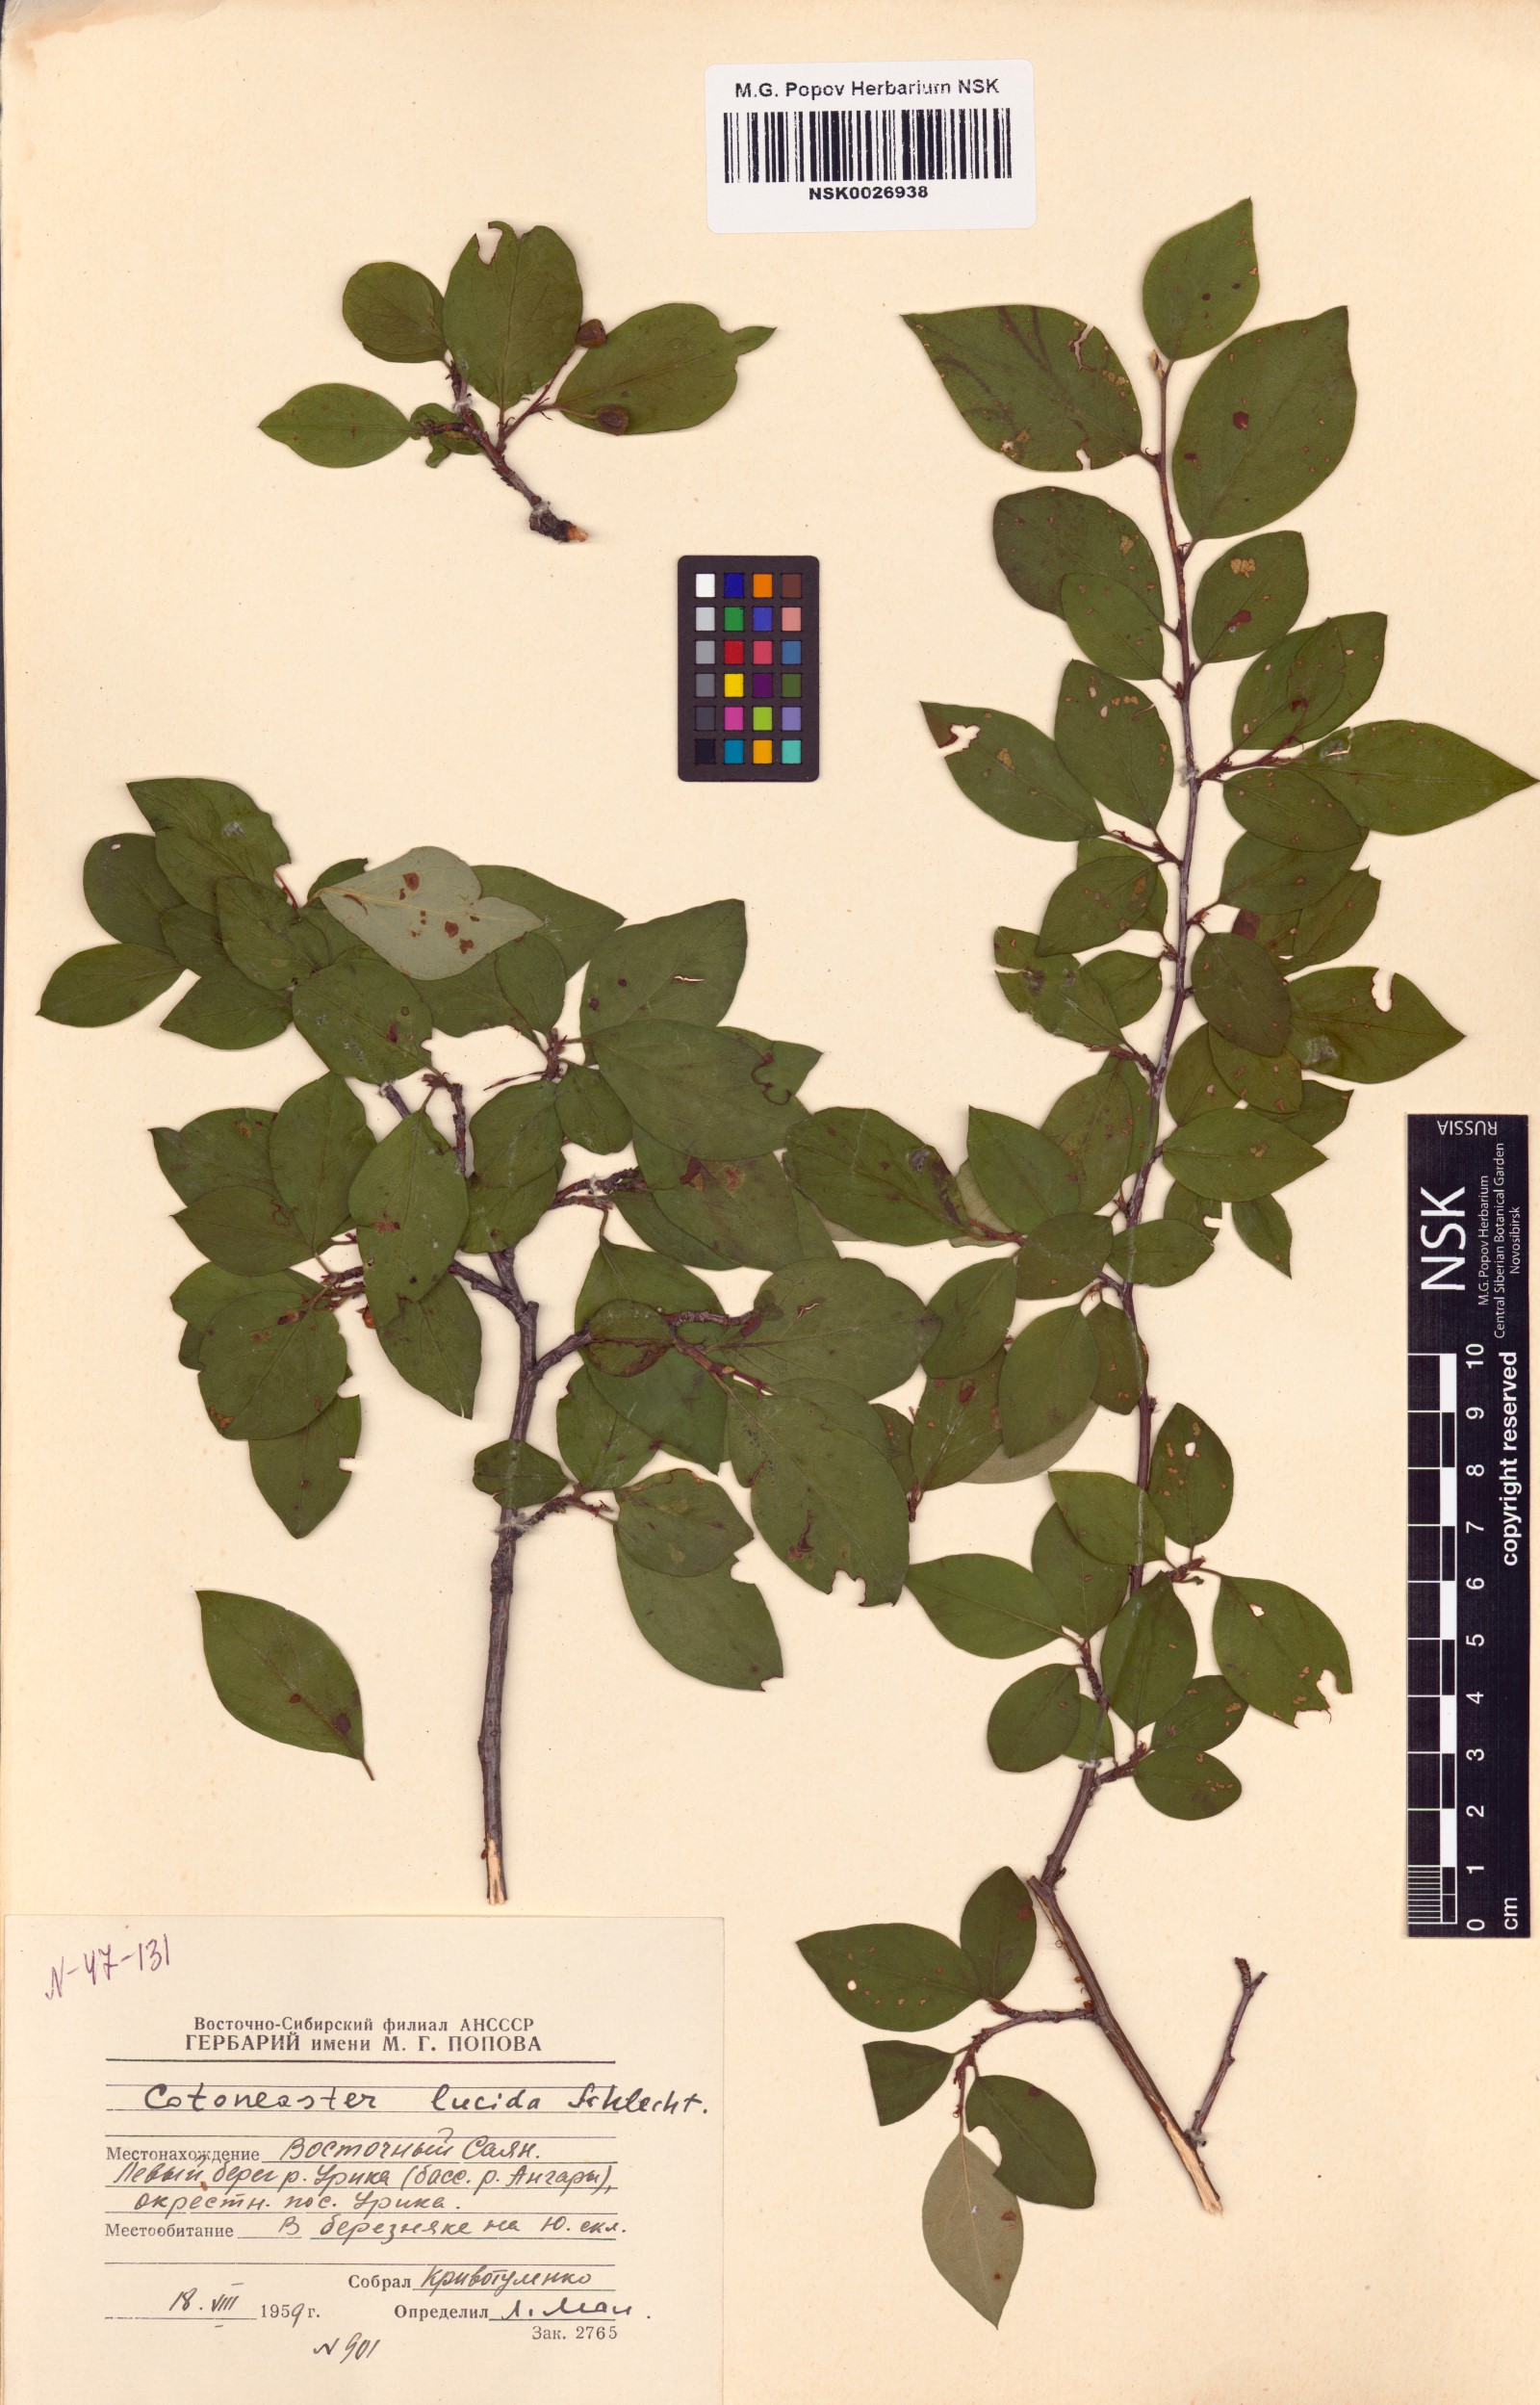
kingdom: Plantae
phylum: Tracheophyta
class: Magnoliopsida
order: Rosales
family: Rosaceae
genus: Cotoneaster
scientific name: Cotoneaster acutifolius
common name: Peking cotoneaster
